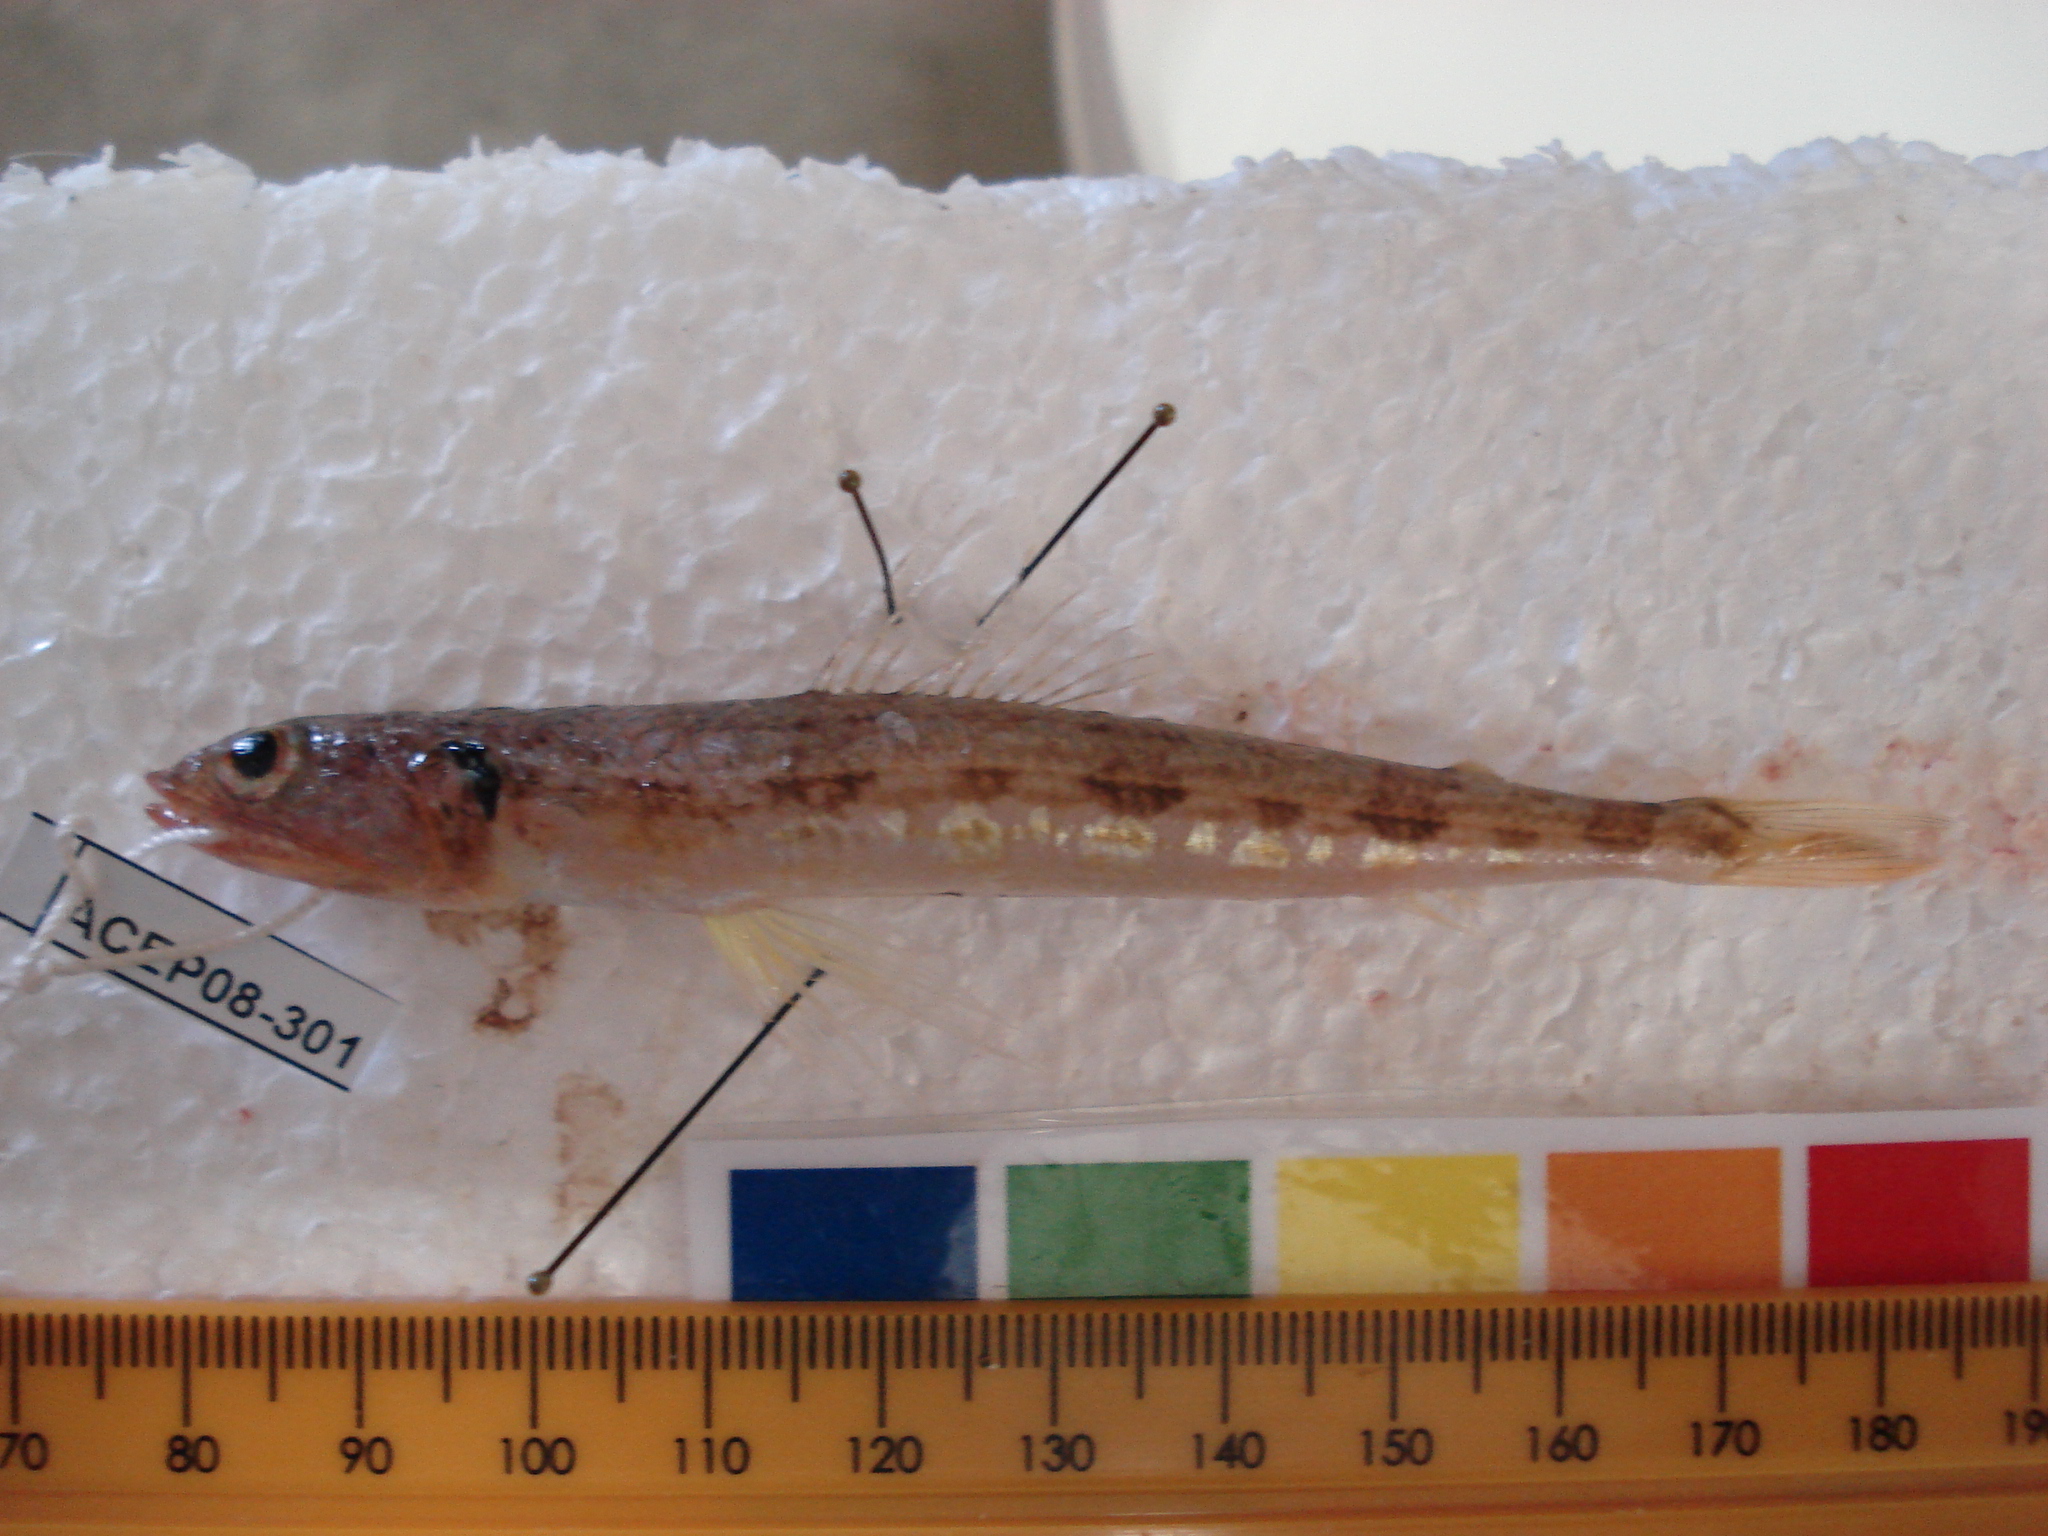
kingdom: Animalia
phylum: Chordata
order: Aulopiformes
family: Synodontidae
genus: Synodus
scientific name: Synodus hoshinonis
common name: Blackear lizardfish
